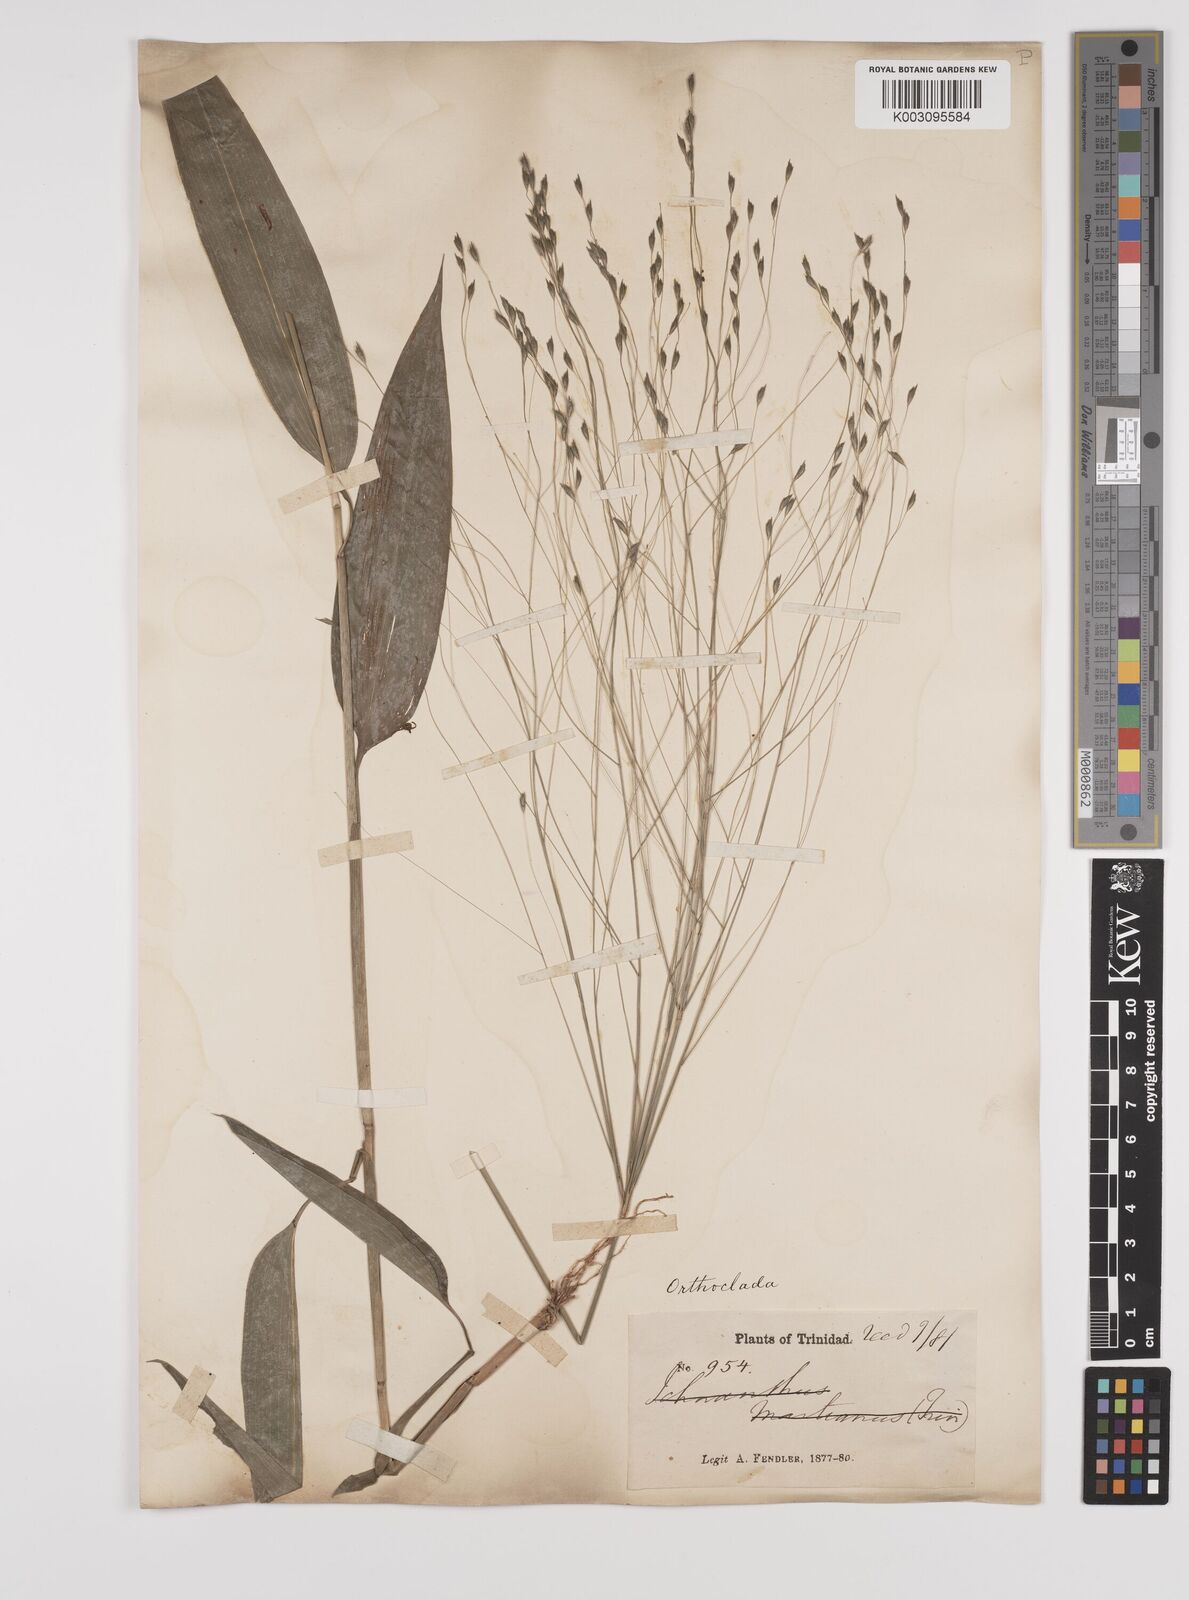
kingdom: Plantae
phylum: Tracheophyta
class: Liliopsida
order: Poales
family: Poaceae
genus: Orthoclada
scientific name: Orthoclada laxa
